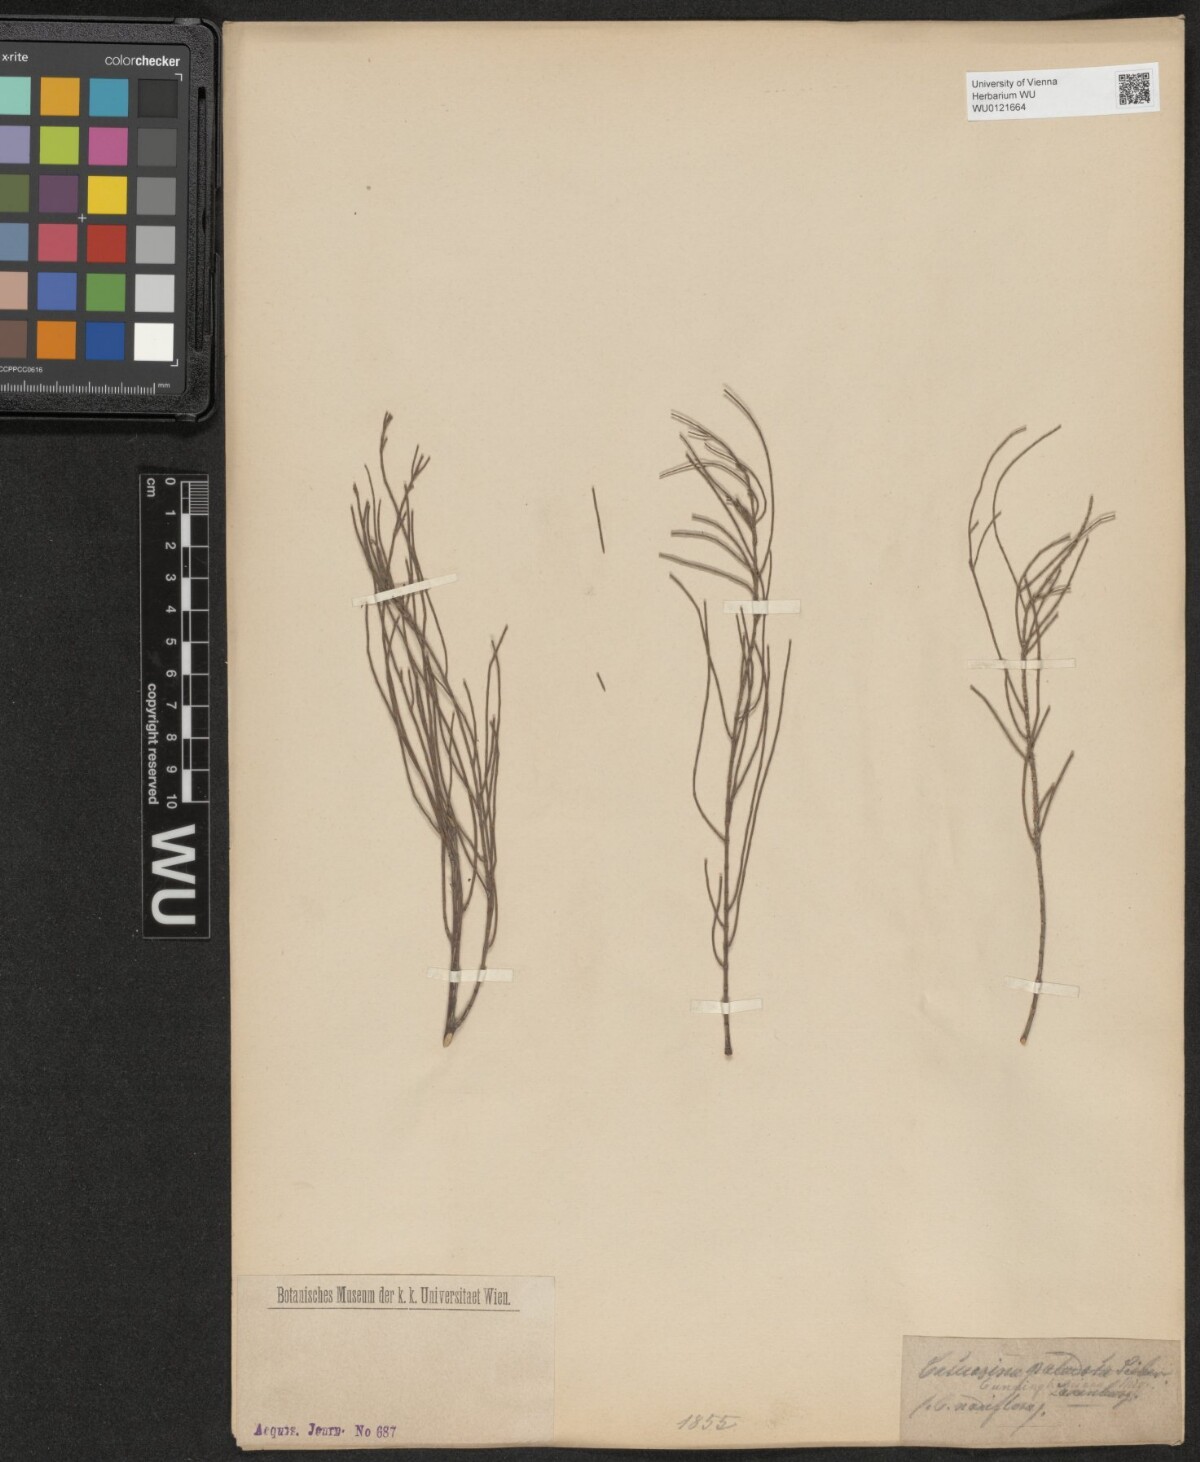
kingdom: Plantae
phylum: Tracheophyta
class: Magnoliopsida
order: Fagales
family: Casuarinaceae
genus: Allocasuarina
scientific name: Allocasuarina paludosa
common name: Scrub she-oak
